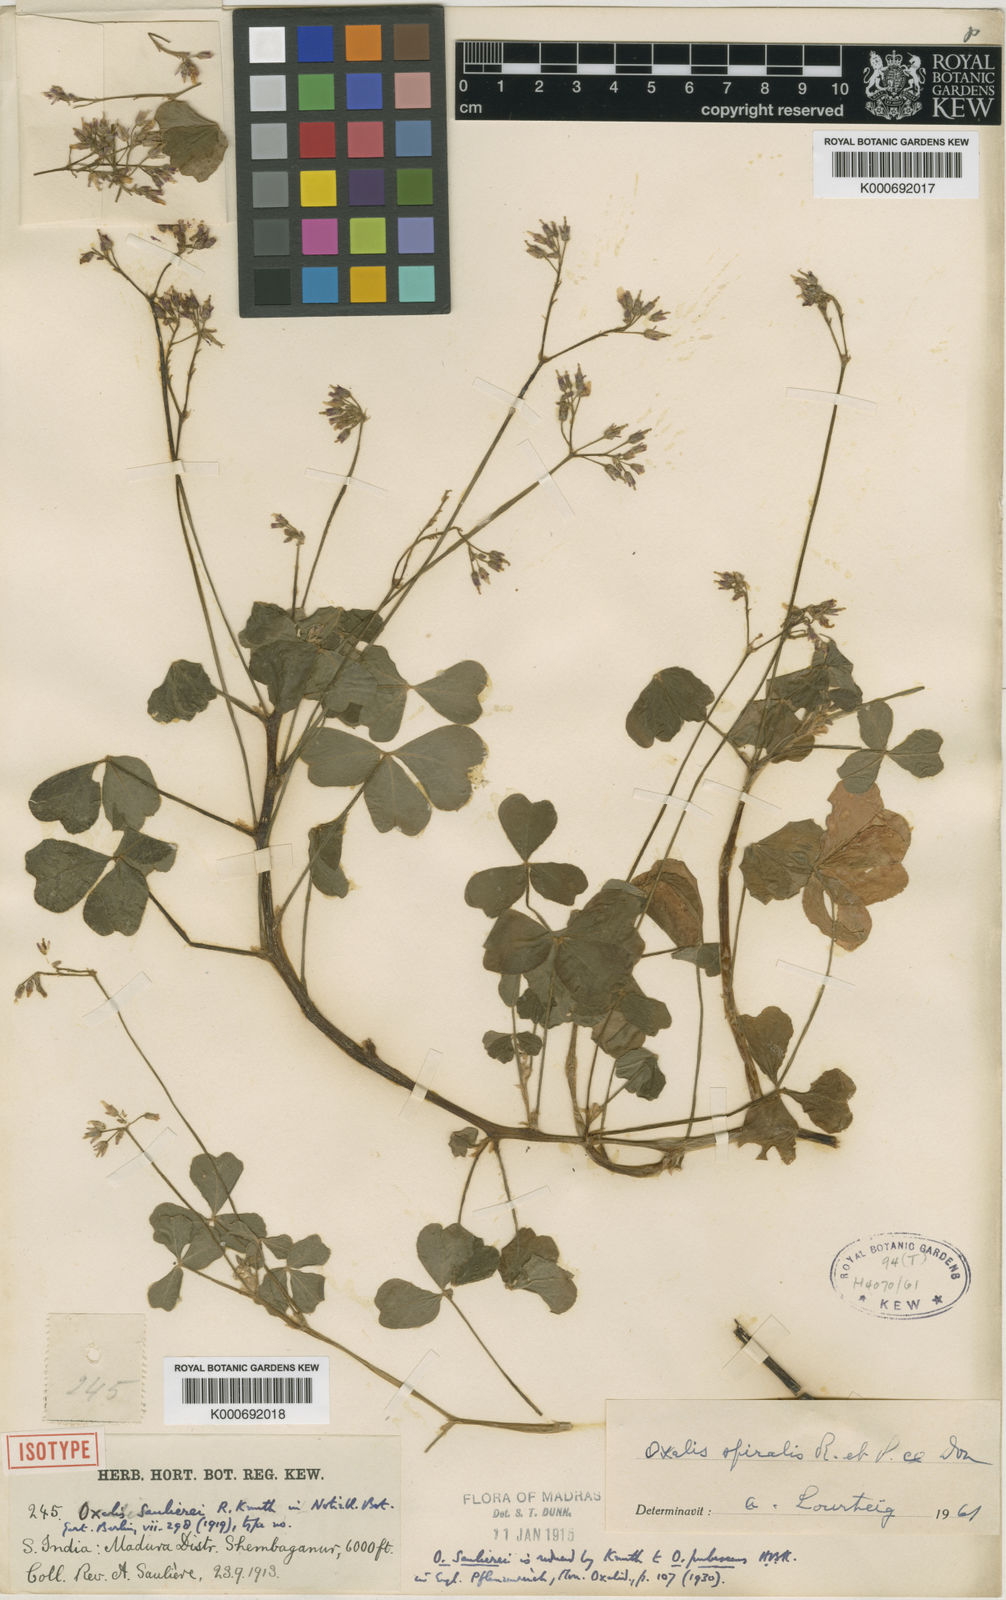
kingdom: Plantae
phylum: Tracheophyta
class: Magnoliopsida
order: Oxalidales
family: Oxalidaceae
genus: Oxalis
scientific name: Oxalis
